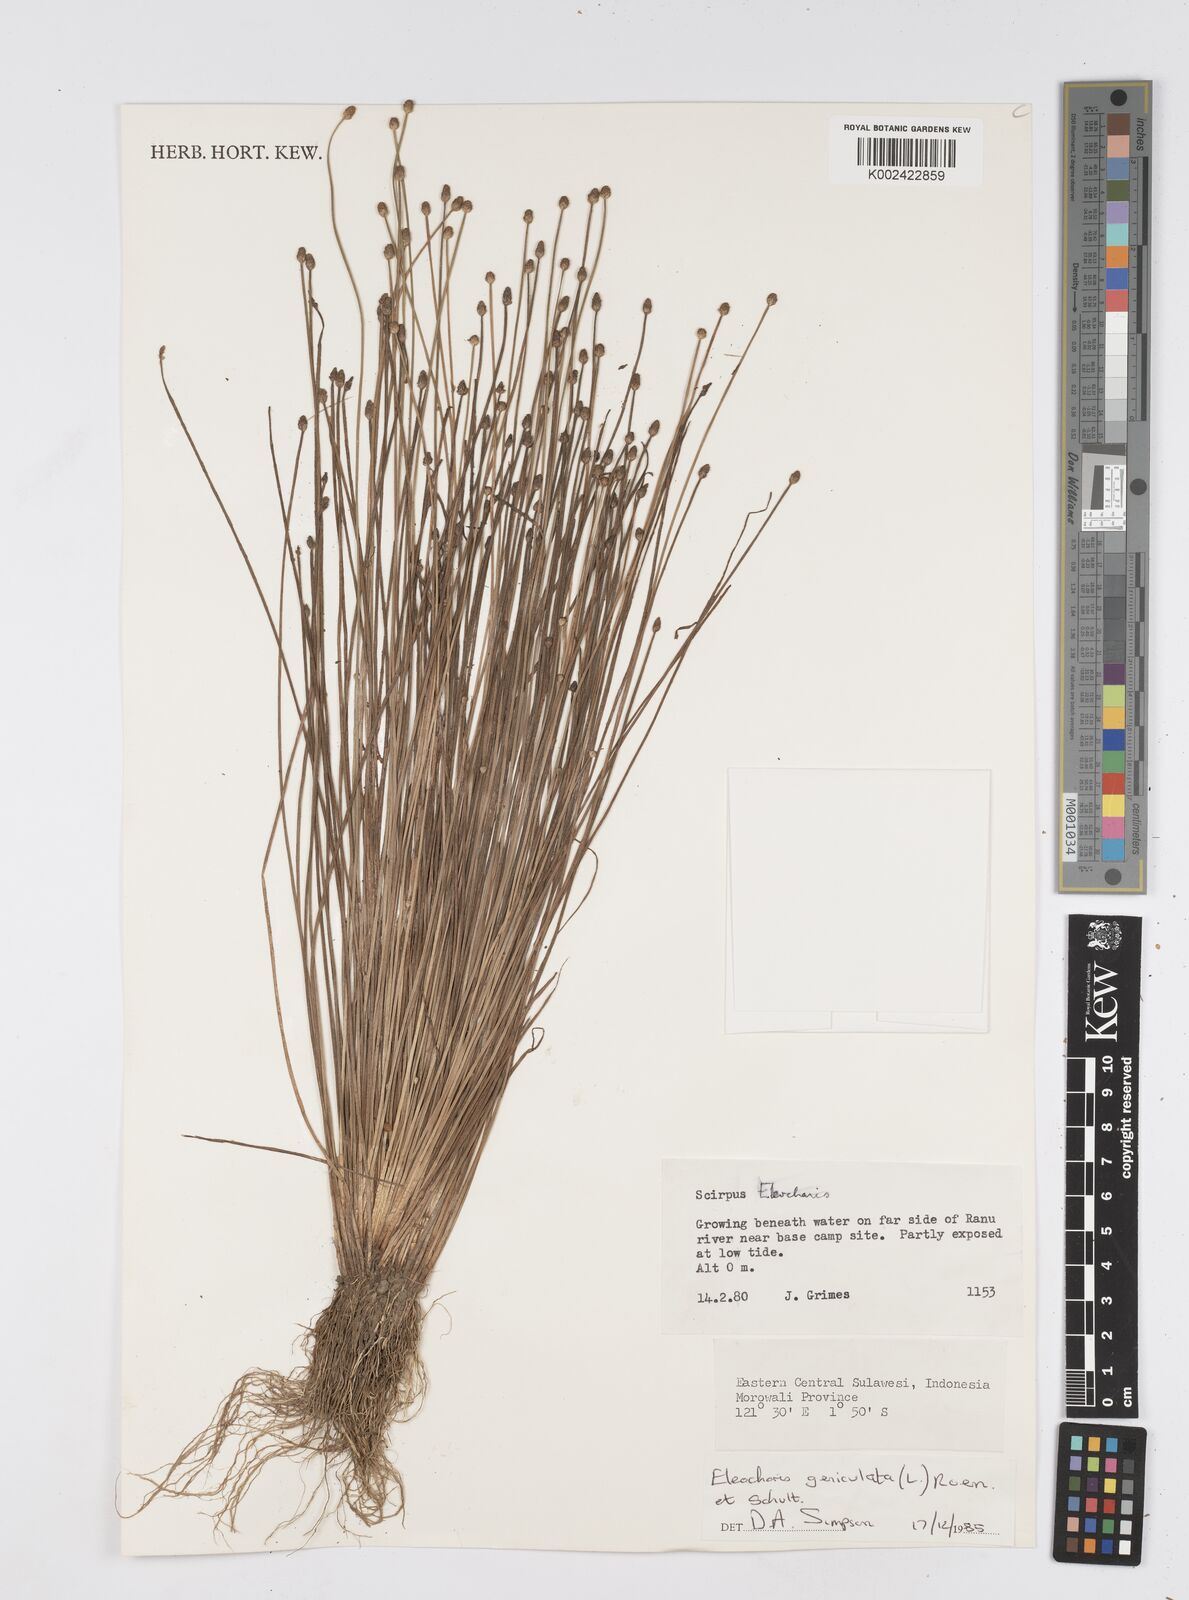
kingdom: Plantae
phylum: Tracheophyta
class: Liliopsida
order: Poales
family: Cyperaceae
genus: Eleocharis
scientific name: Eleocharis geniculata
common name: Canada spikesedge
